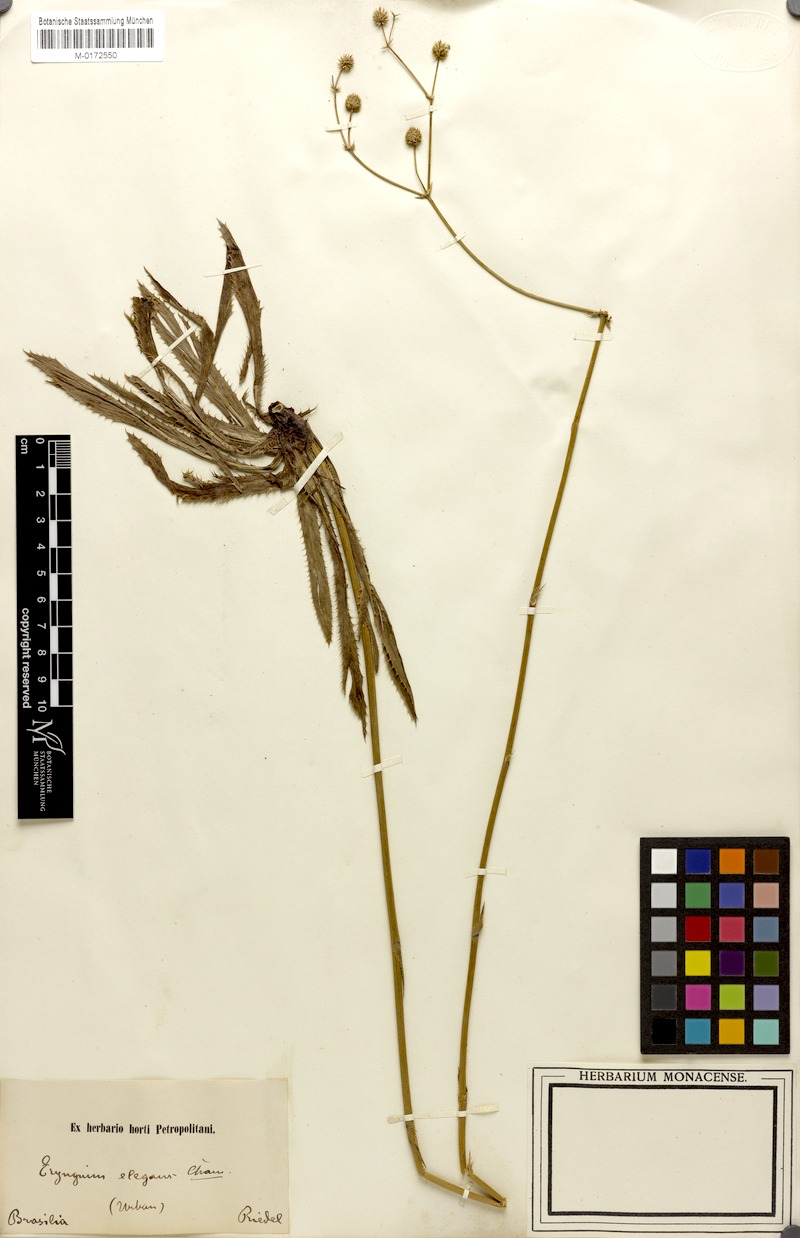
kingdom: Plantae
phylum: Tracheophyta
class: Magnoliopsida
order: Apiales
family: Apiaceae
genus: Eryngium
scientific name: Eryngium elegans
